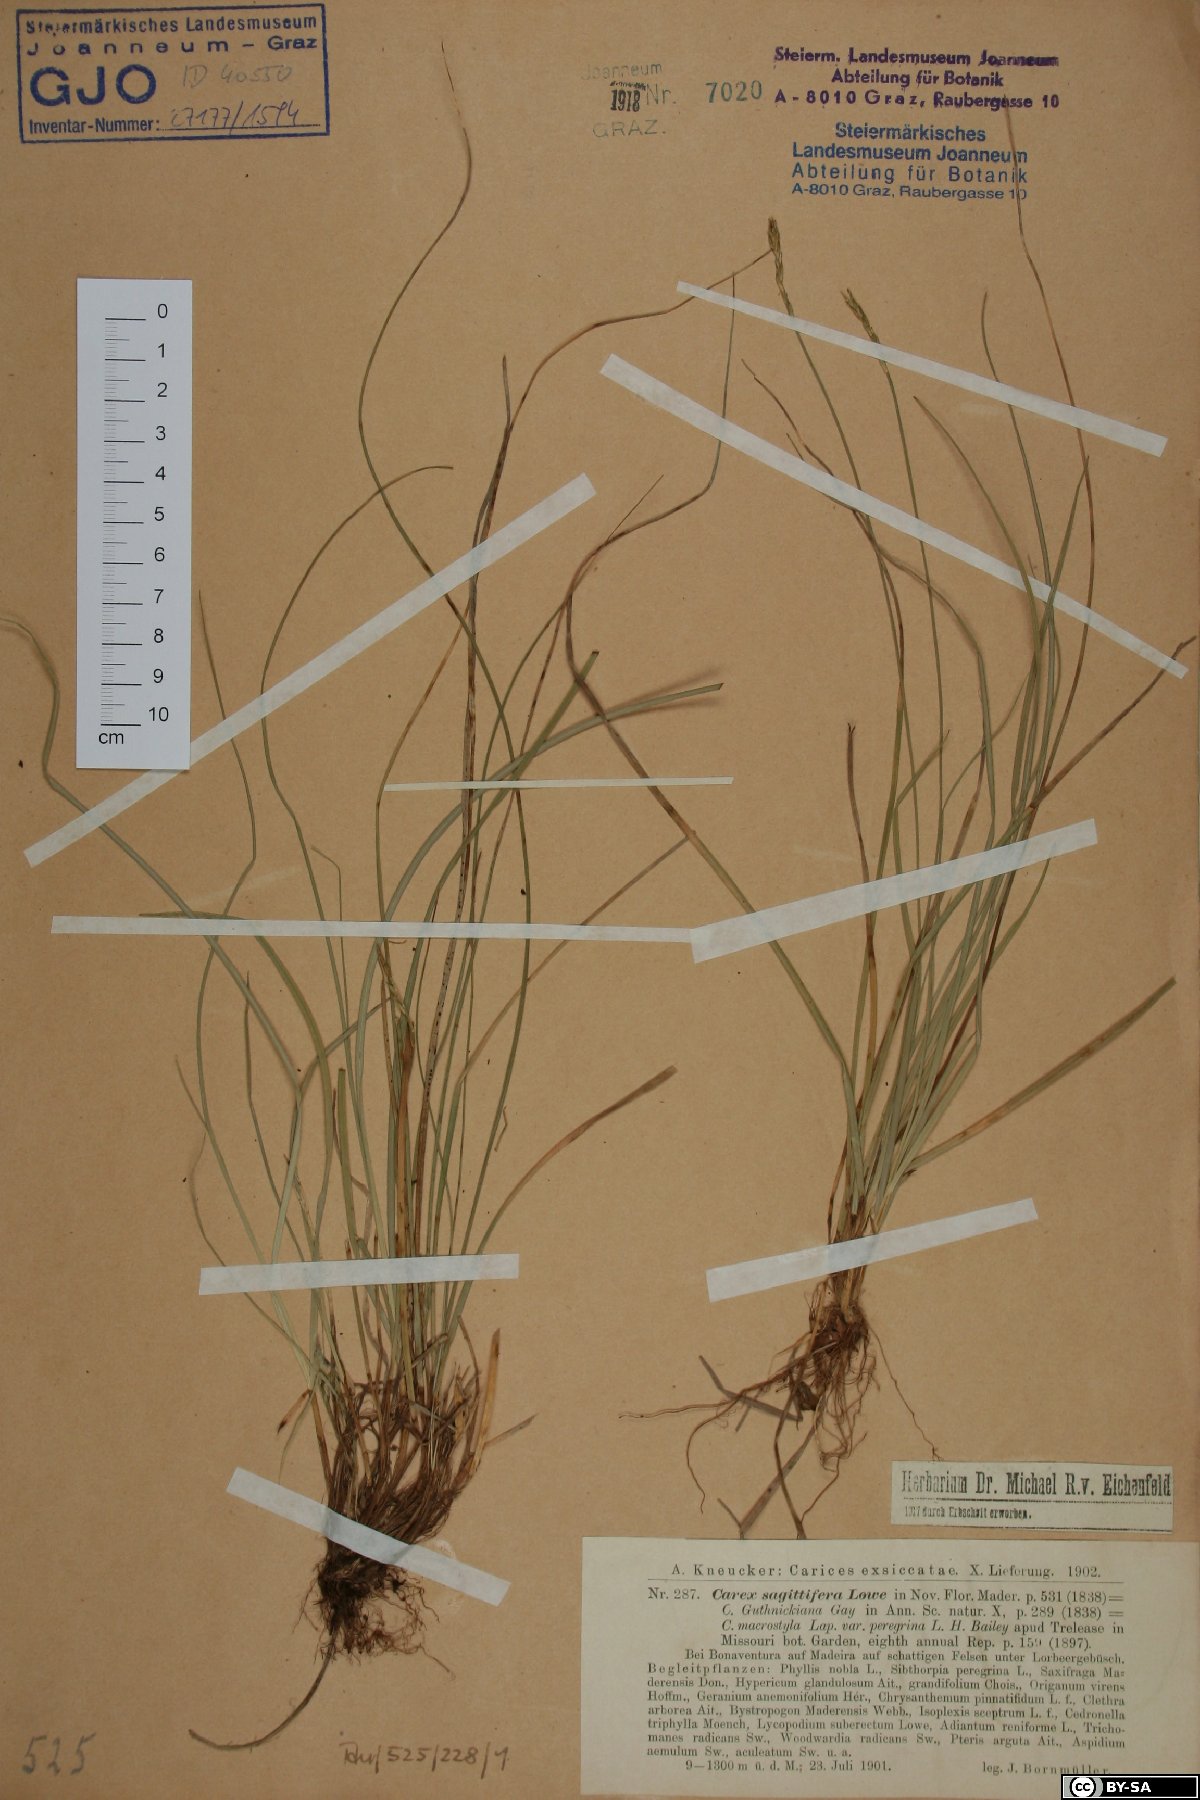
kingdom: Plantae
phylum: Tracheophyta
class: Liliopsida
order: Poales
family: Cyperaceae
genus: Carex
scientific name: Carex peregrina
